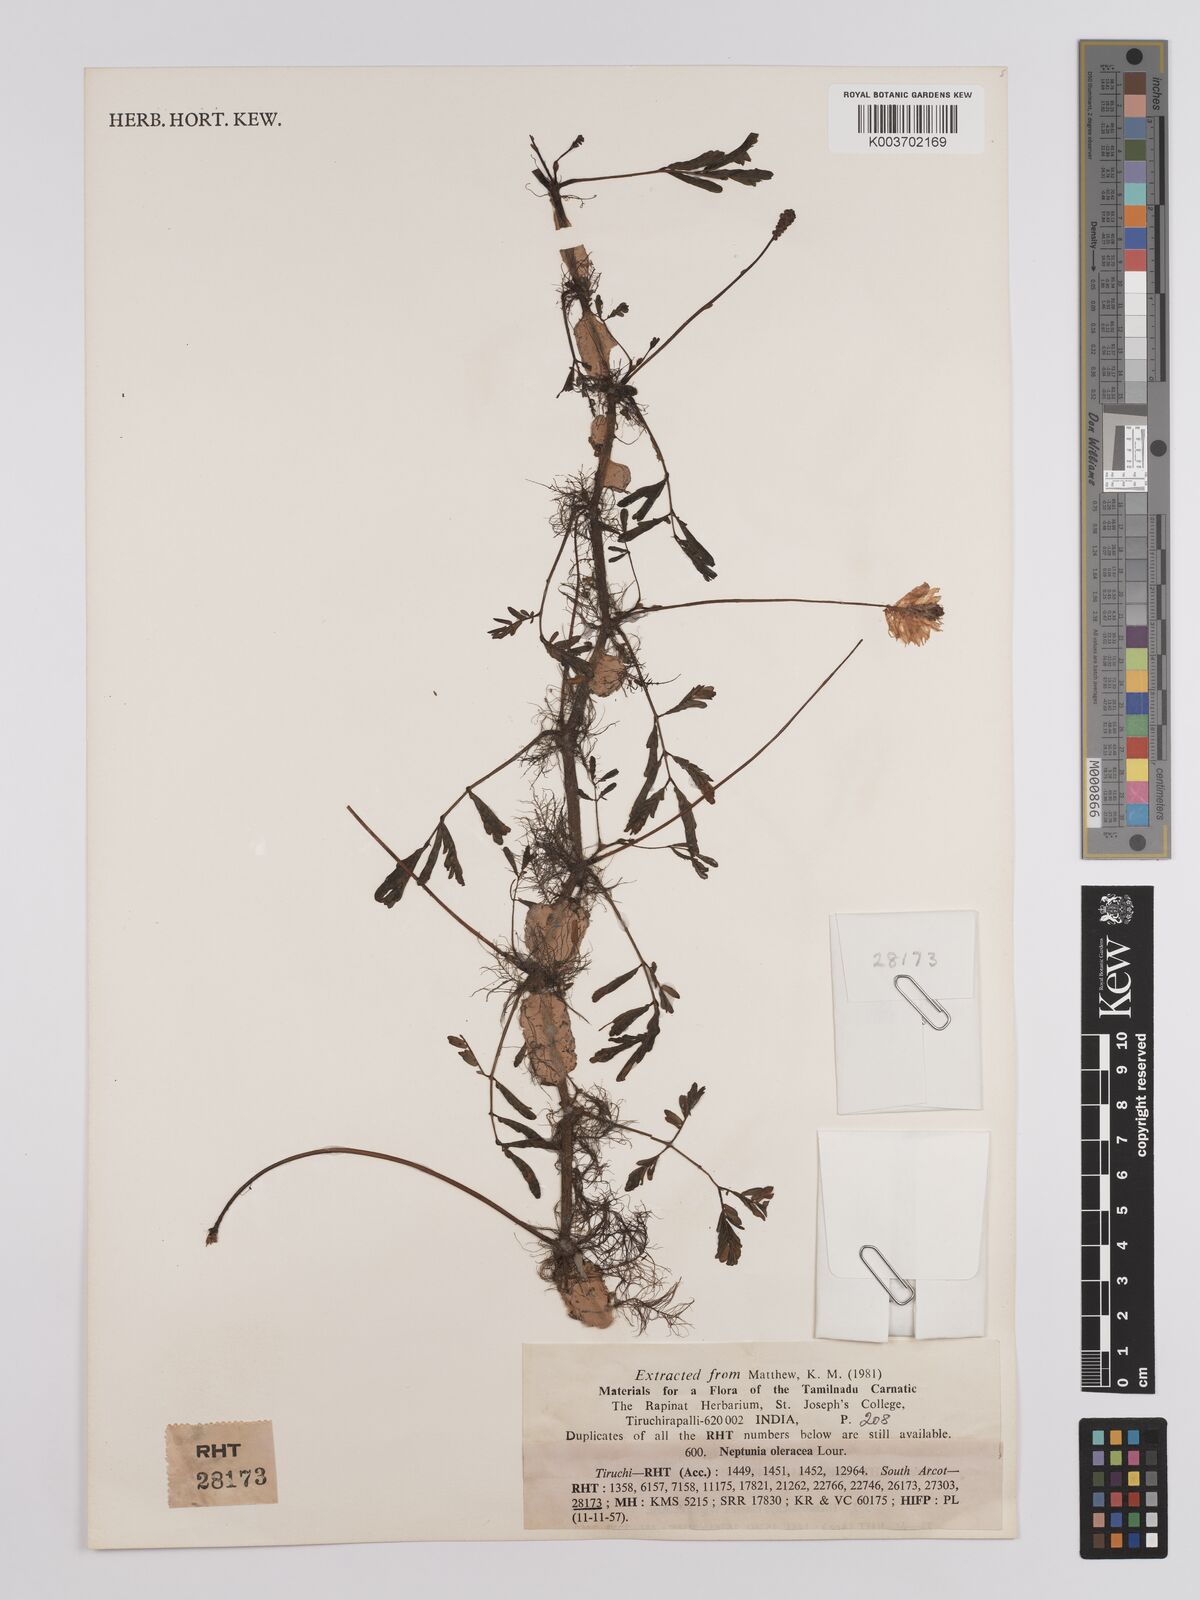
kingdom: Plantae
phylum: Tracheophyta
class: Magnoliopsida
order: Fabales
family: Fabaceae
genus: Neptunia
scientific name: Neptunia prostrata
